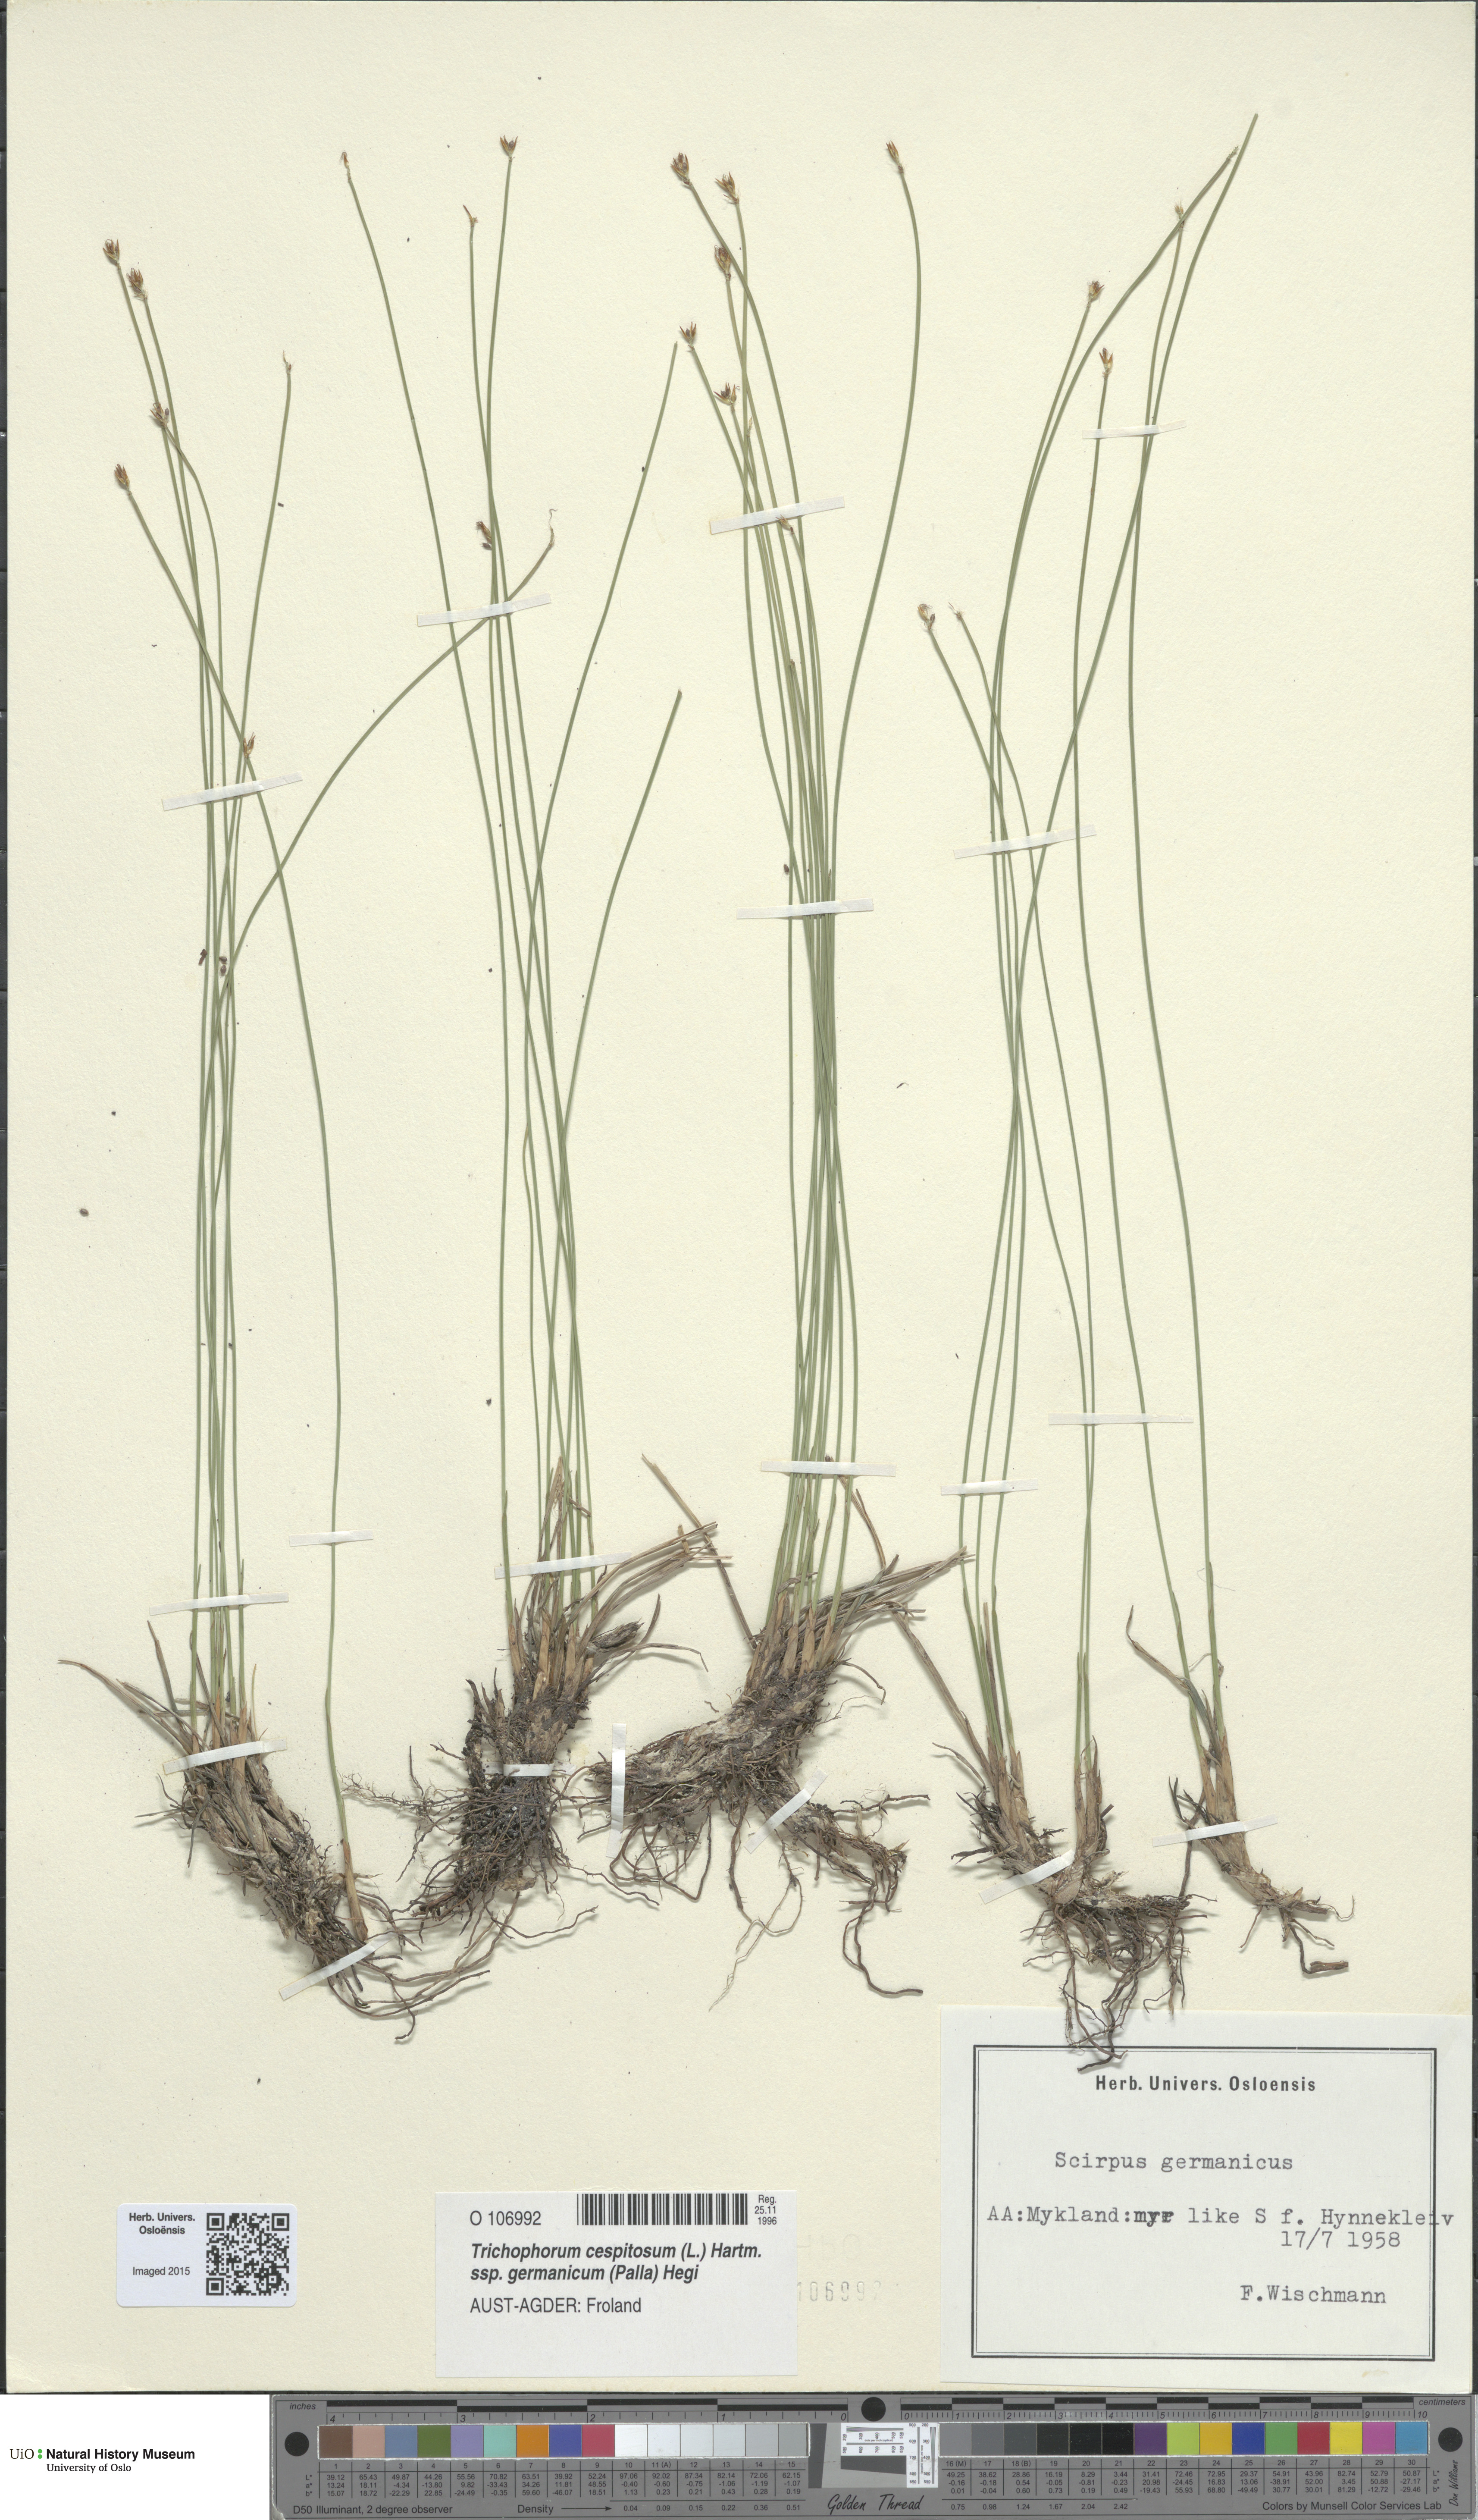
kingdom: Plantae
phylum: Tracheophyta
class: Liliopsida
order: Poales
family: Cyperaceae
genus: Trichophorum
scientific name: Trichophorum cespitosum
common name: Cespitose bulrush
